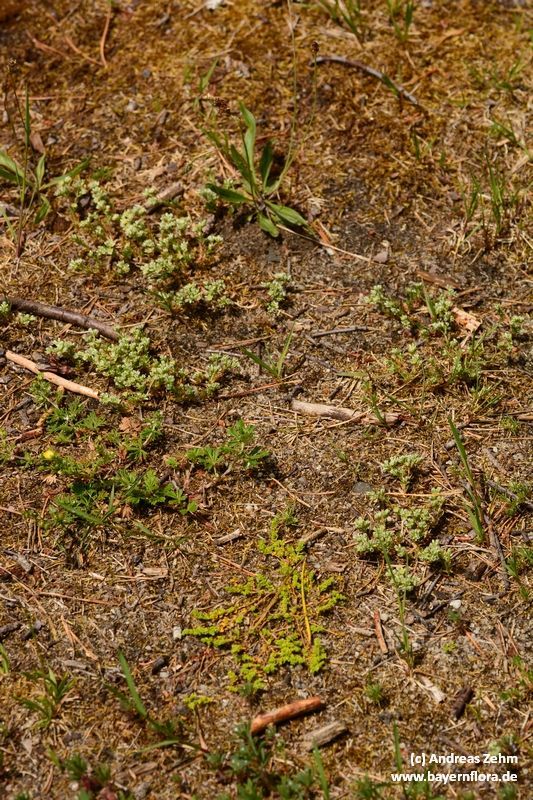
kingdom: Plantae
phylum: Tracheophyta
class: Magnoliopsida
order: Caryophyllales
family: Caryophyllaceae
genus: Scleranthus
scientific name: Scleranthus perennis
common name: Perennial knawel
